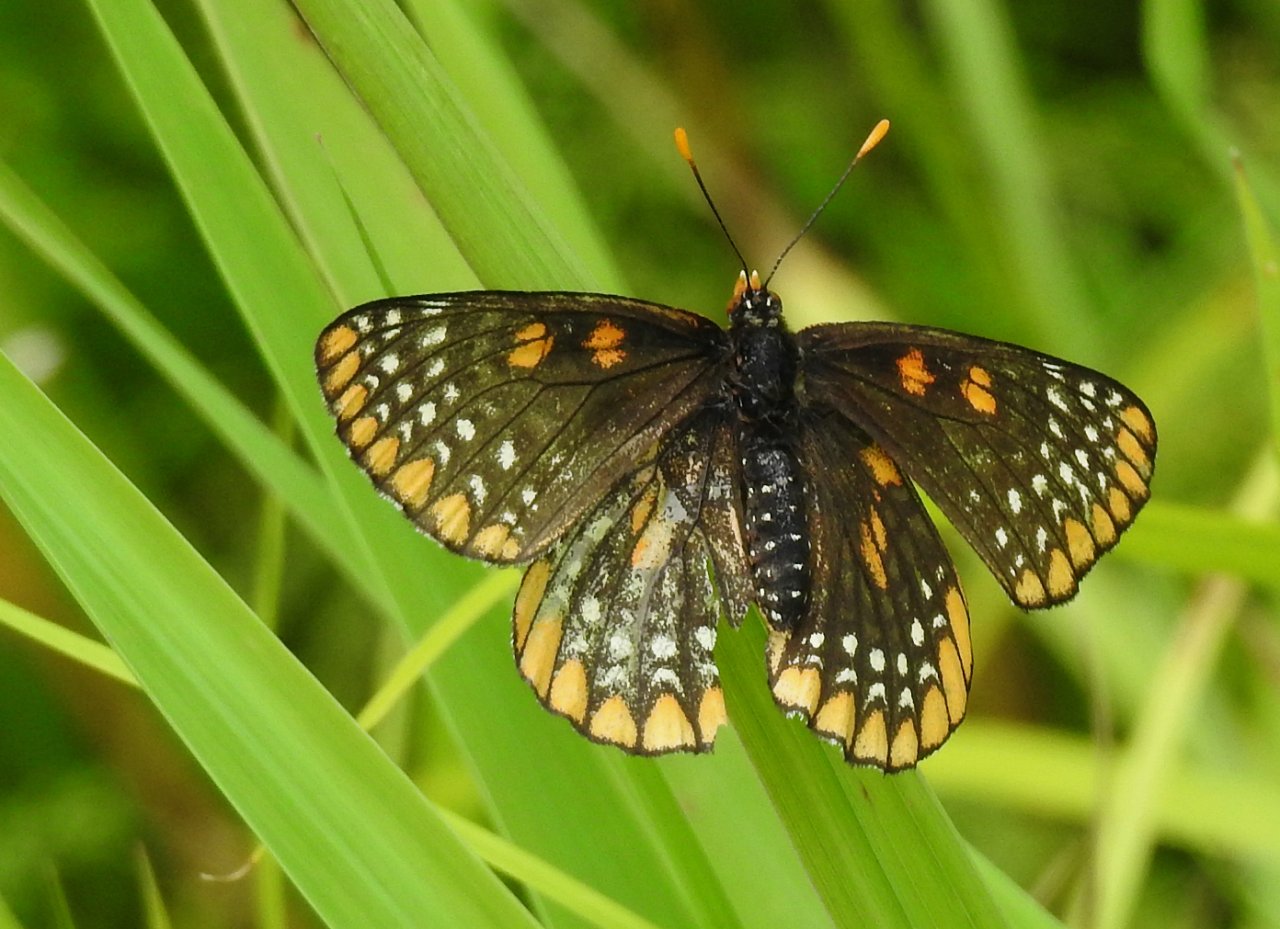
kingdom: Animalia
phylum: Arthropoda
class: Insecta
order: Lepidoptera
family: Nymphalidae
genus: Euphydryas
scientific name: Euphydryas phaeton
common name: Baltimore Checkerspot
